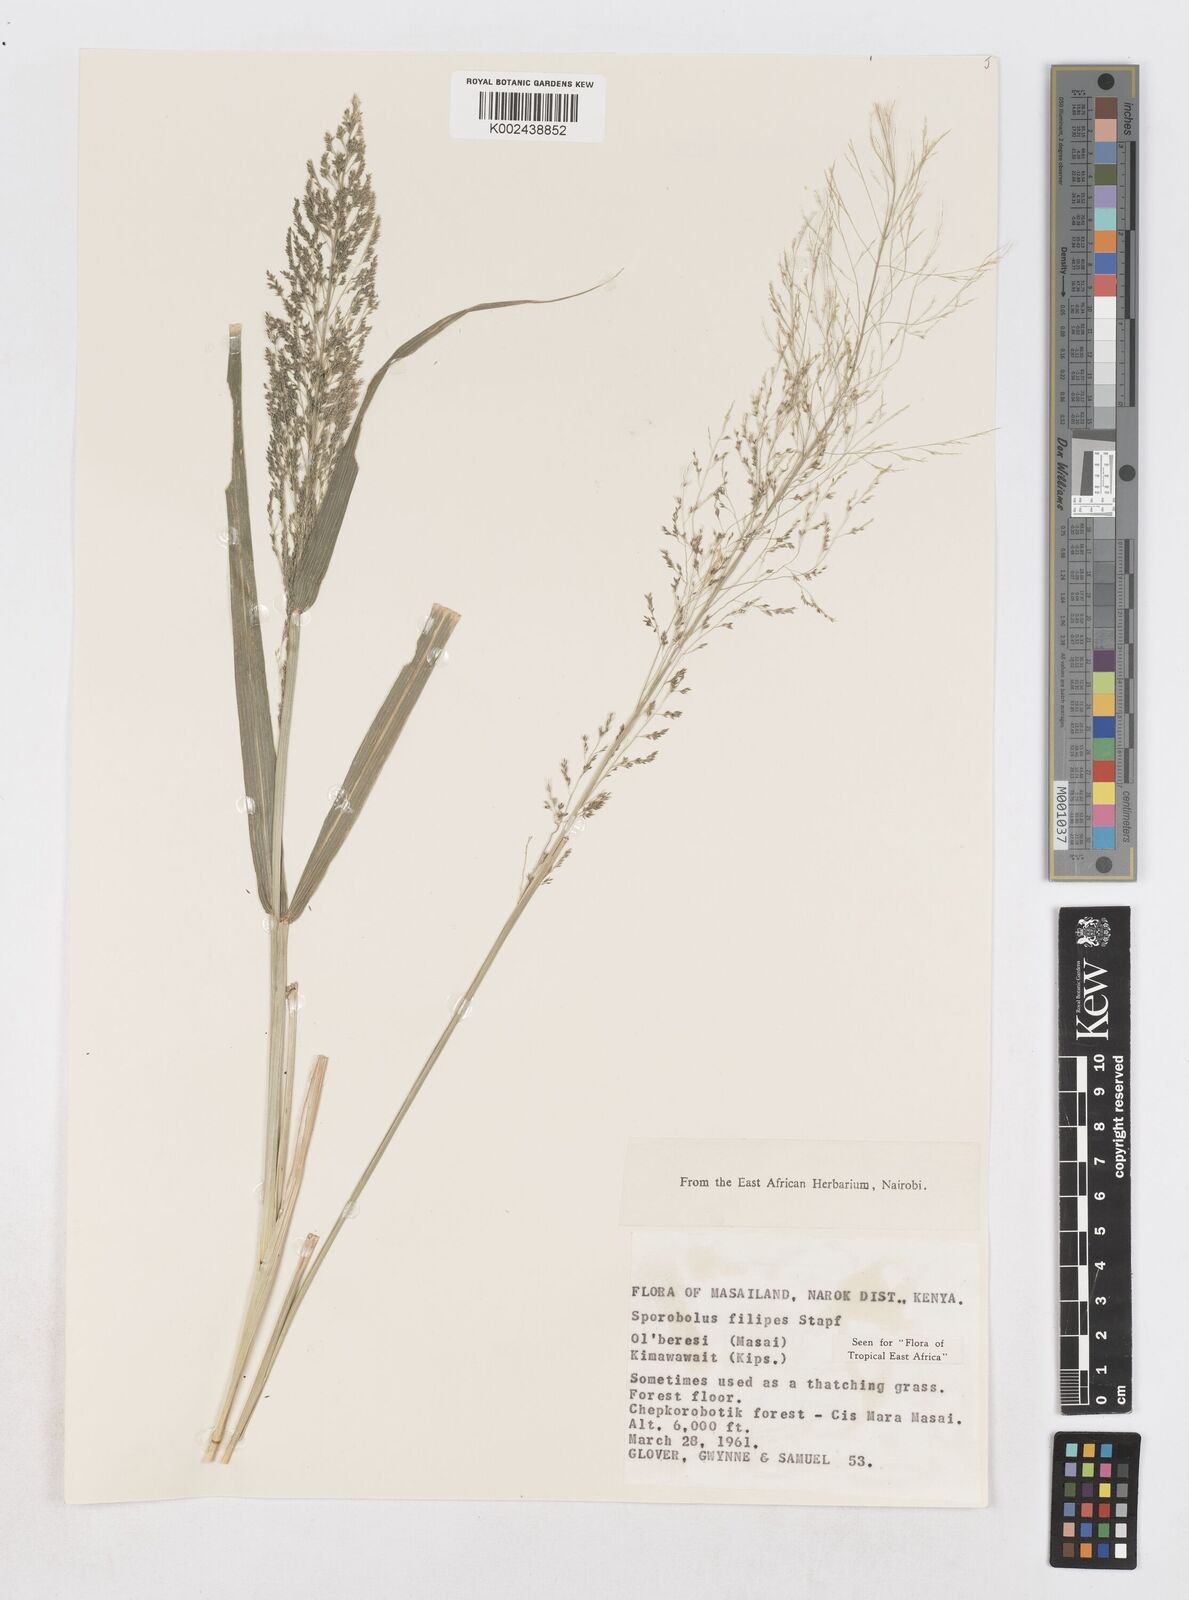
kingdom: Plantae
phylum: Tracheophyta
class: Liliopsida
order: Poales
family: Poaceae
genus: Sporobolus
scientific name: Sporobolus agrostoides
